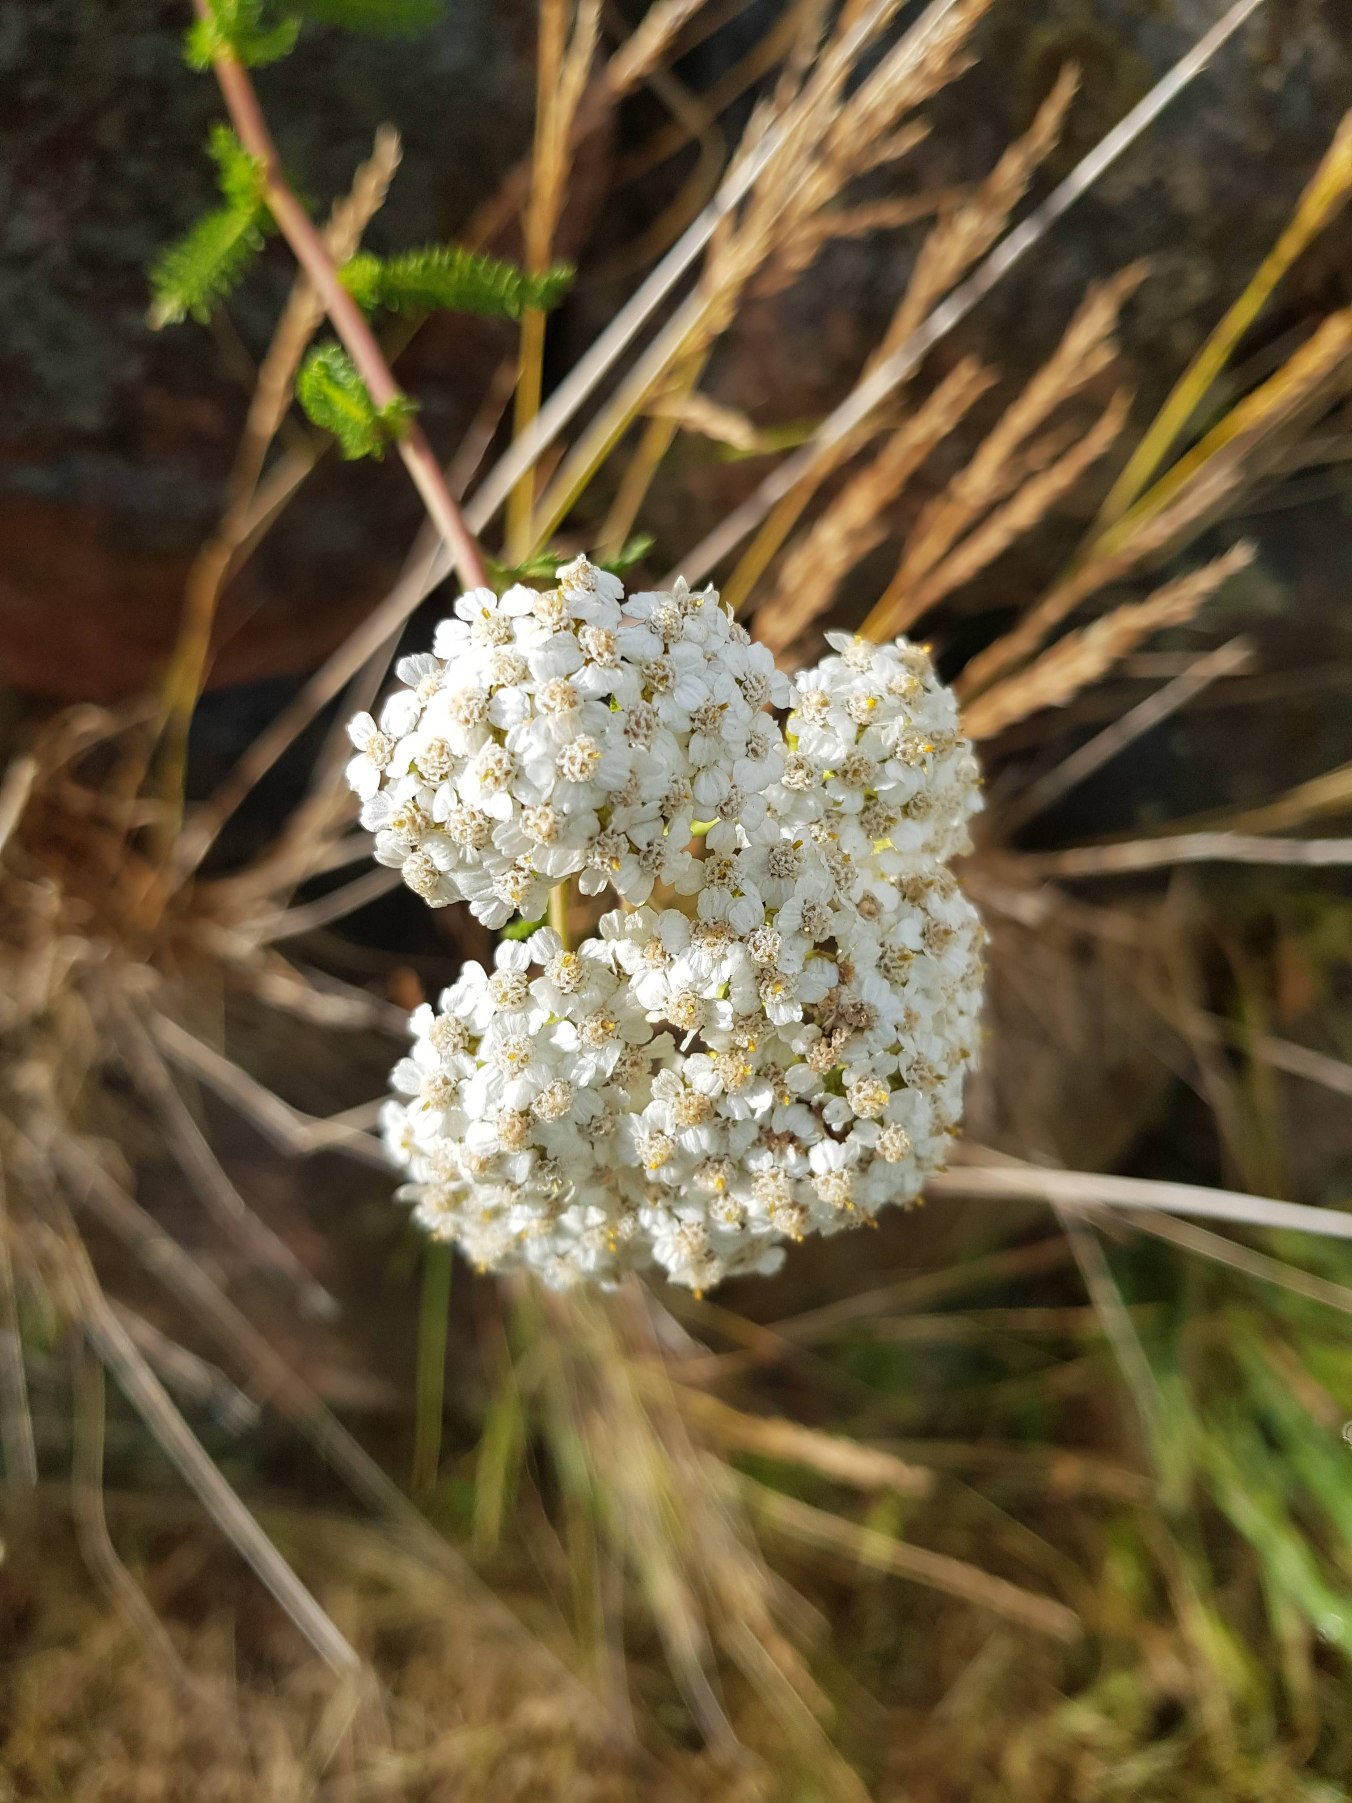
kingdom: Plantae
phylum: Tracheophyta
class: Magnoliopsida
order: Asterales
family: Asteraceae
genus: Achillea
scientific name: Achillea millefolium
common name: Almindelig røllike
